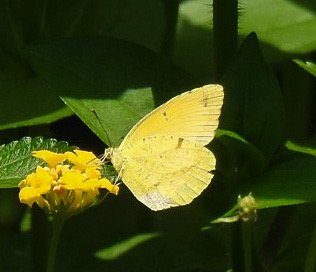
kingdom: Animalia
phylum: Arthropoda
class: Insecta
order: Lepidoptera
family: Pieridae
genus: Abaeis
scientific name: Abaeis nicippe
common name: Sleepy Orange
